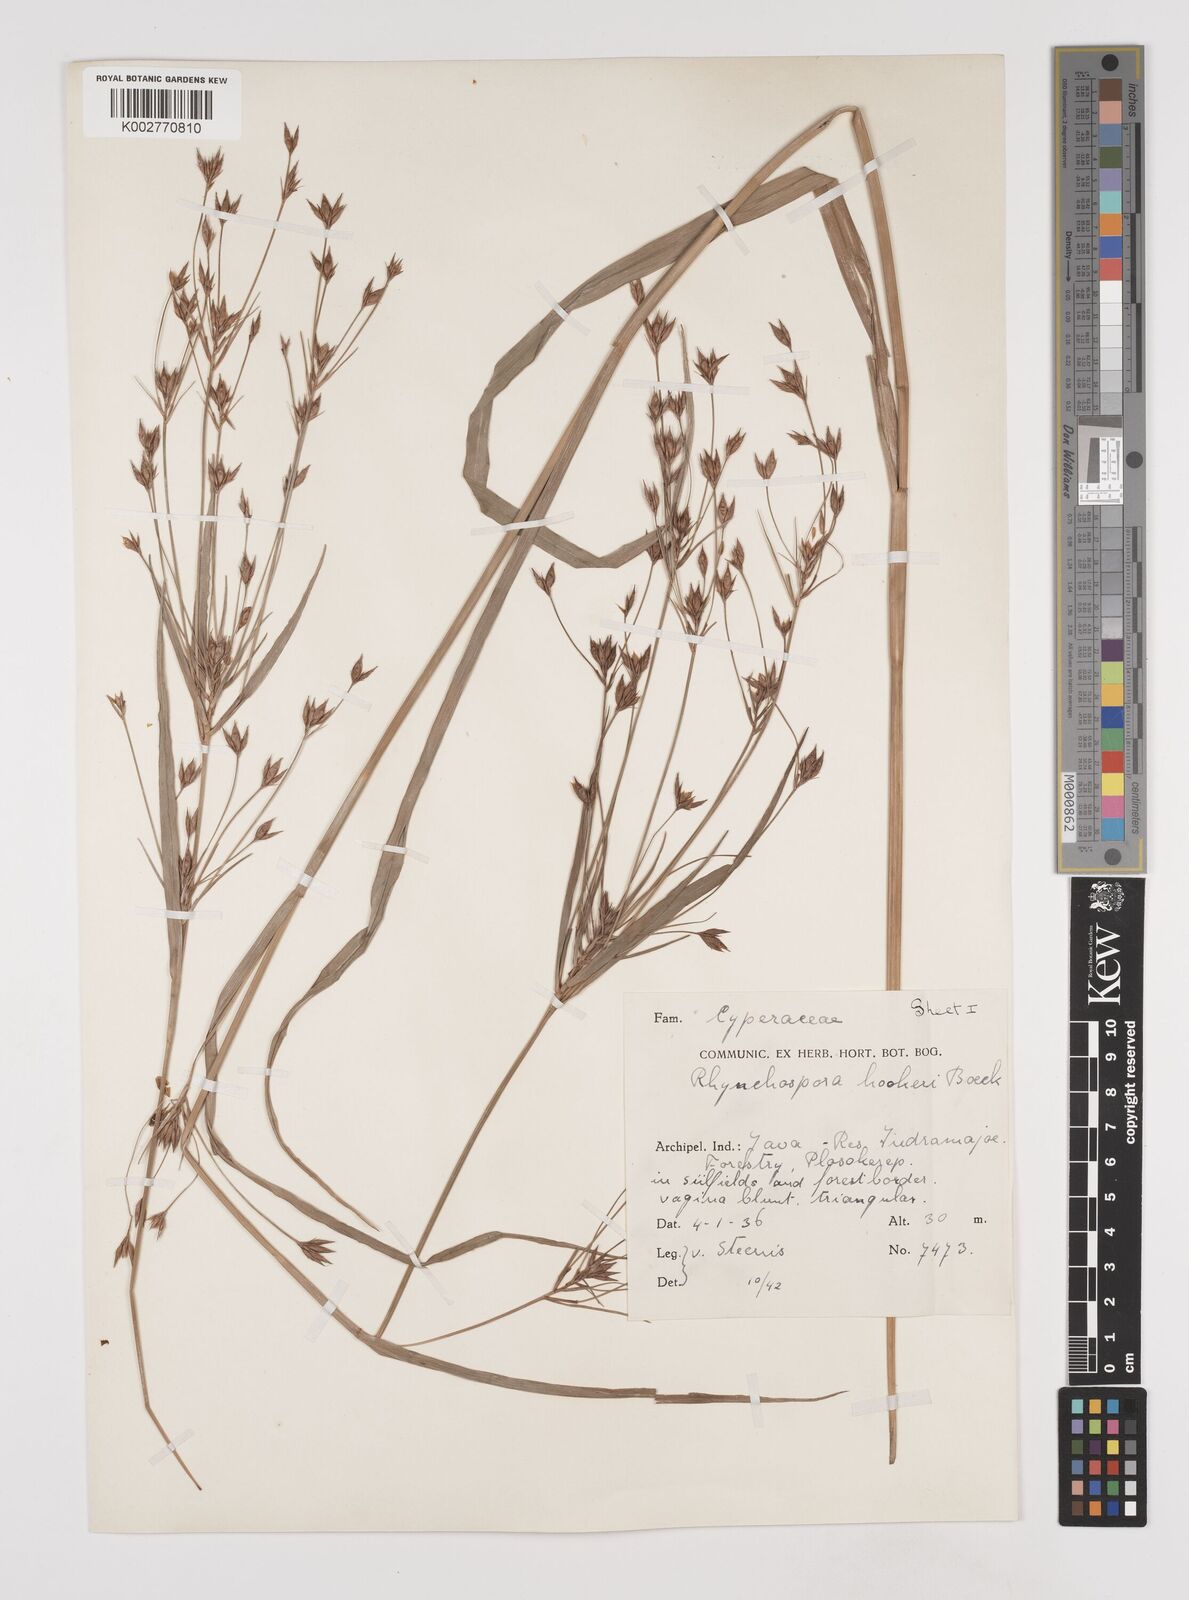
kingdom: Plantae
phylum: Tracheophyta
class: Liliopsida
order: Poales
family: Cyperaceae
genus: Rhynchospora
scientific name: Rhynchospora hookeri
